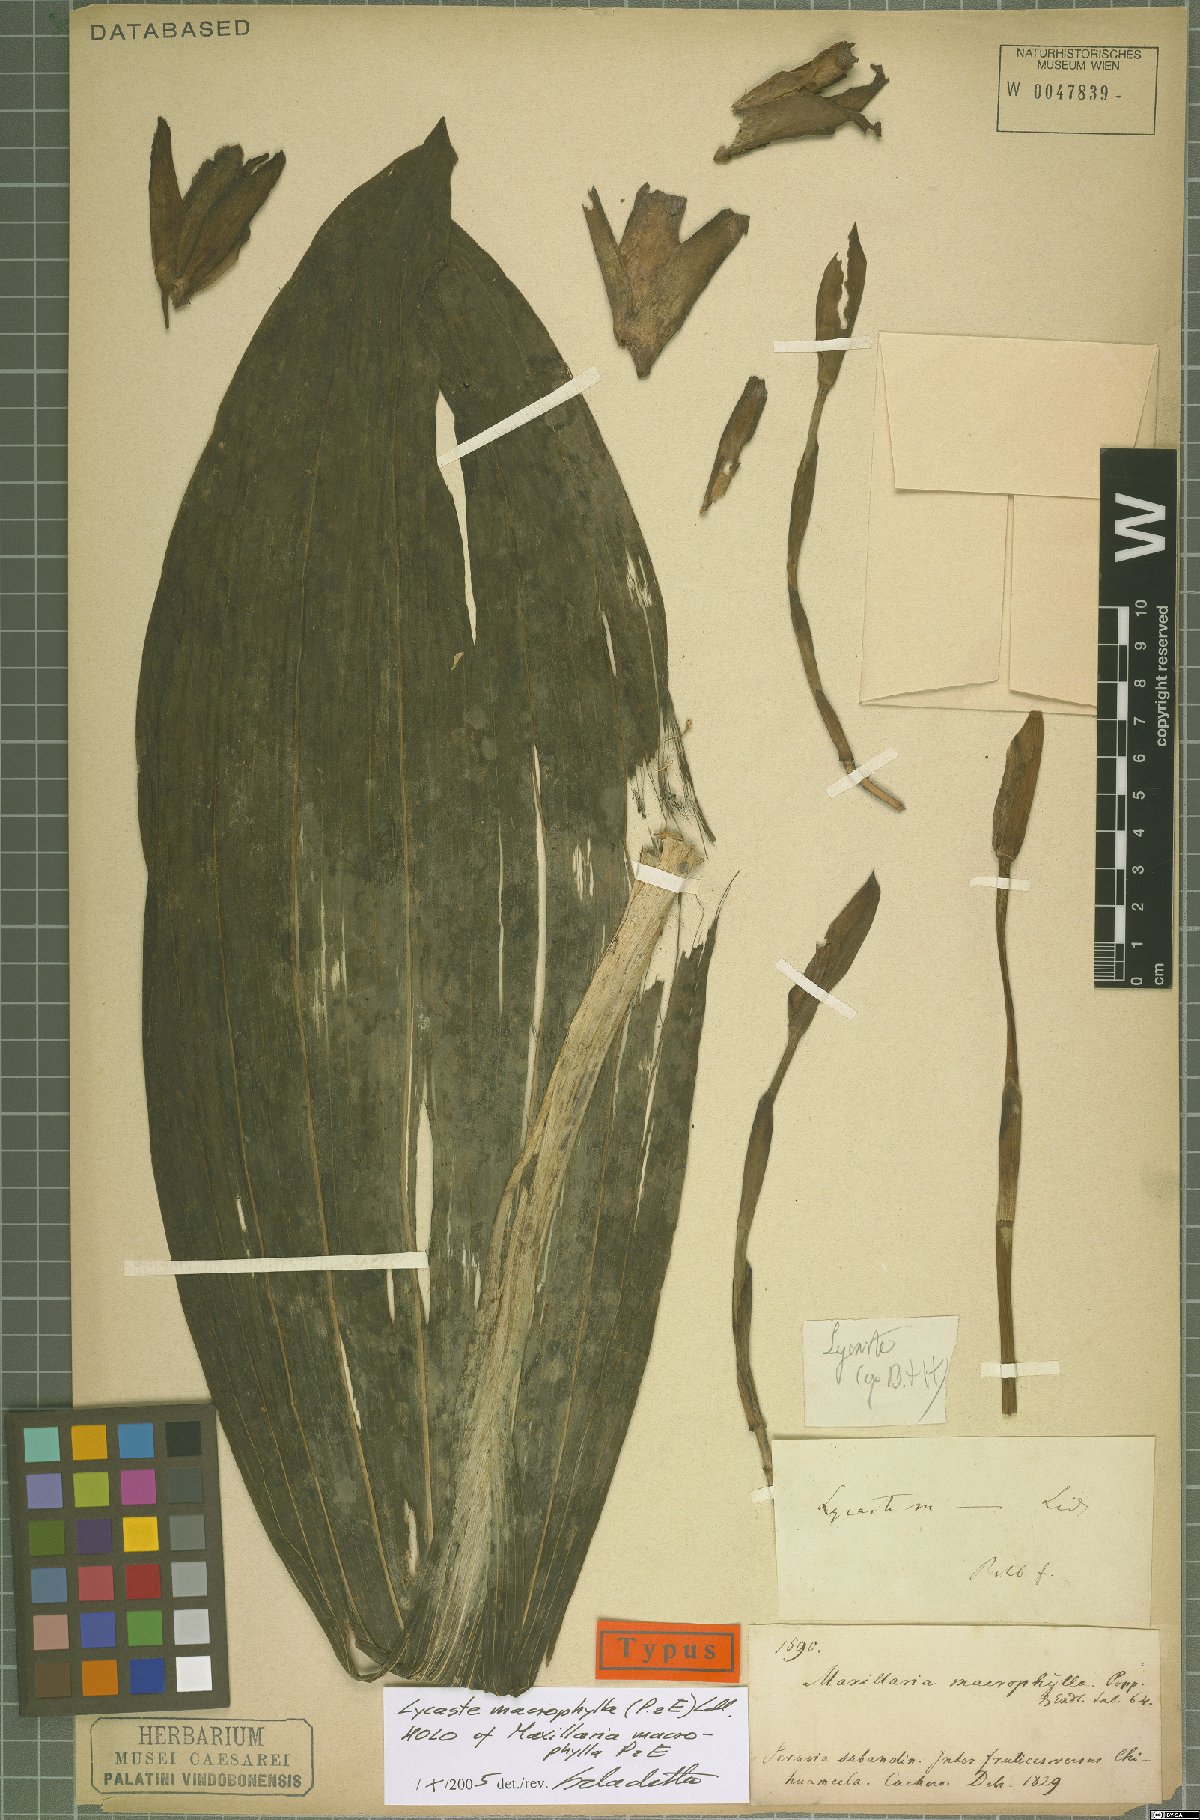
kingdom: Plantae
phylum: Tracheophyta
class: Liliopsida
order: Asparagales
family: Orchidaceae
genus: Lycaste
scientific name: Lycaste macrophylla
